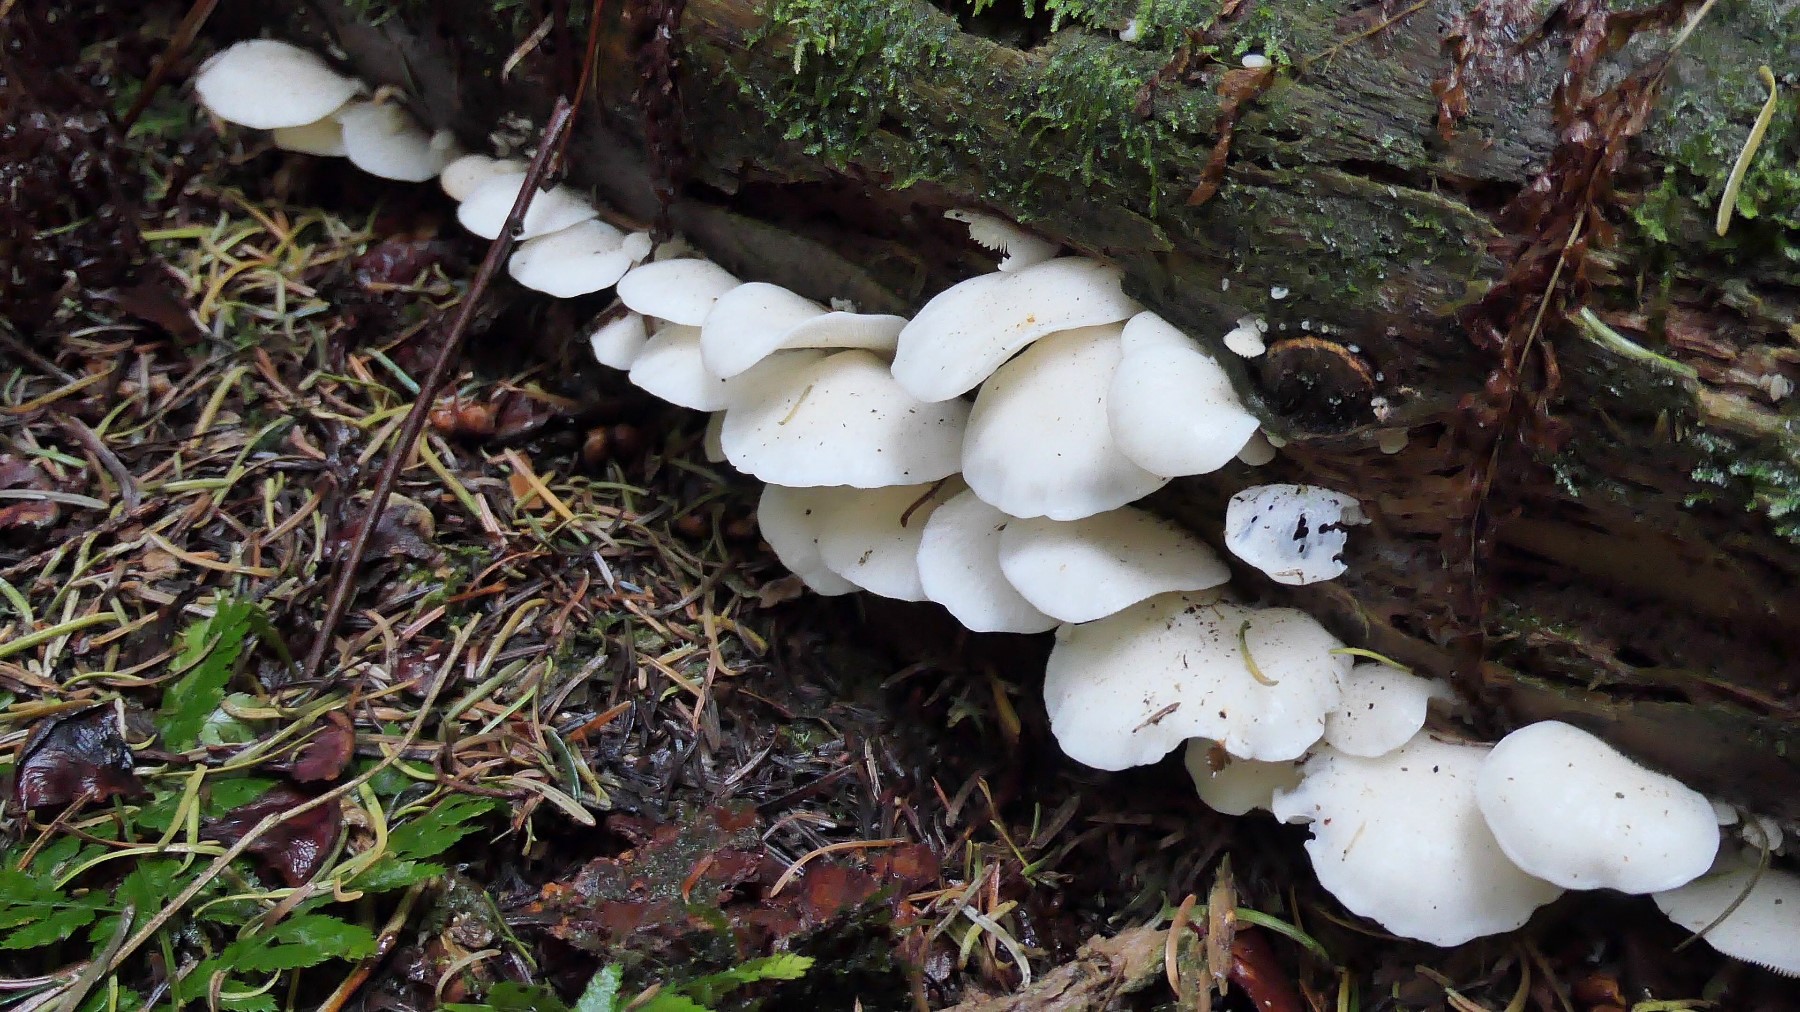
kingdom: Fungi
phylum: Basidiomycota
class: Agaricomycetes
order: Agaricales
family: Marasmiaceae
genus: Pleurocybella
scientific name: Pleurocybella porrigens
